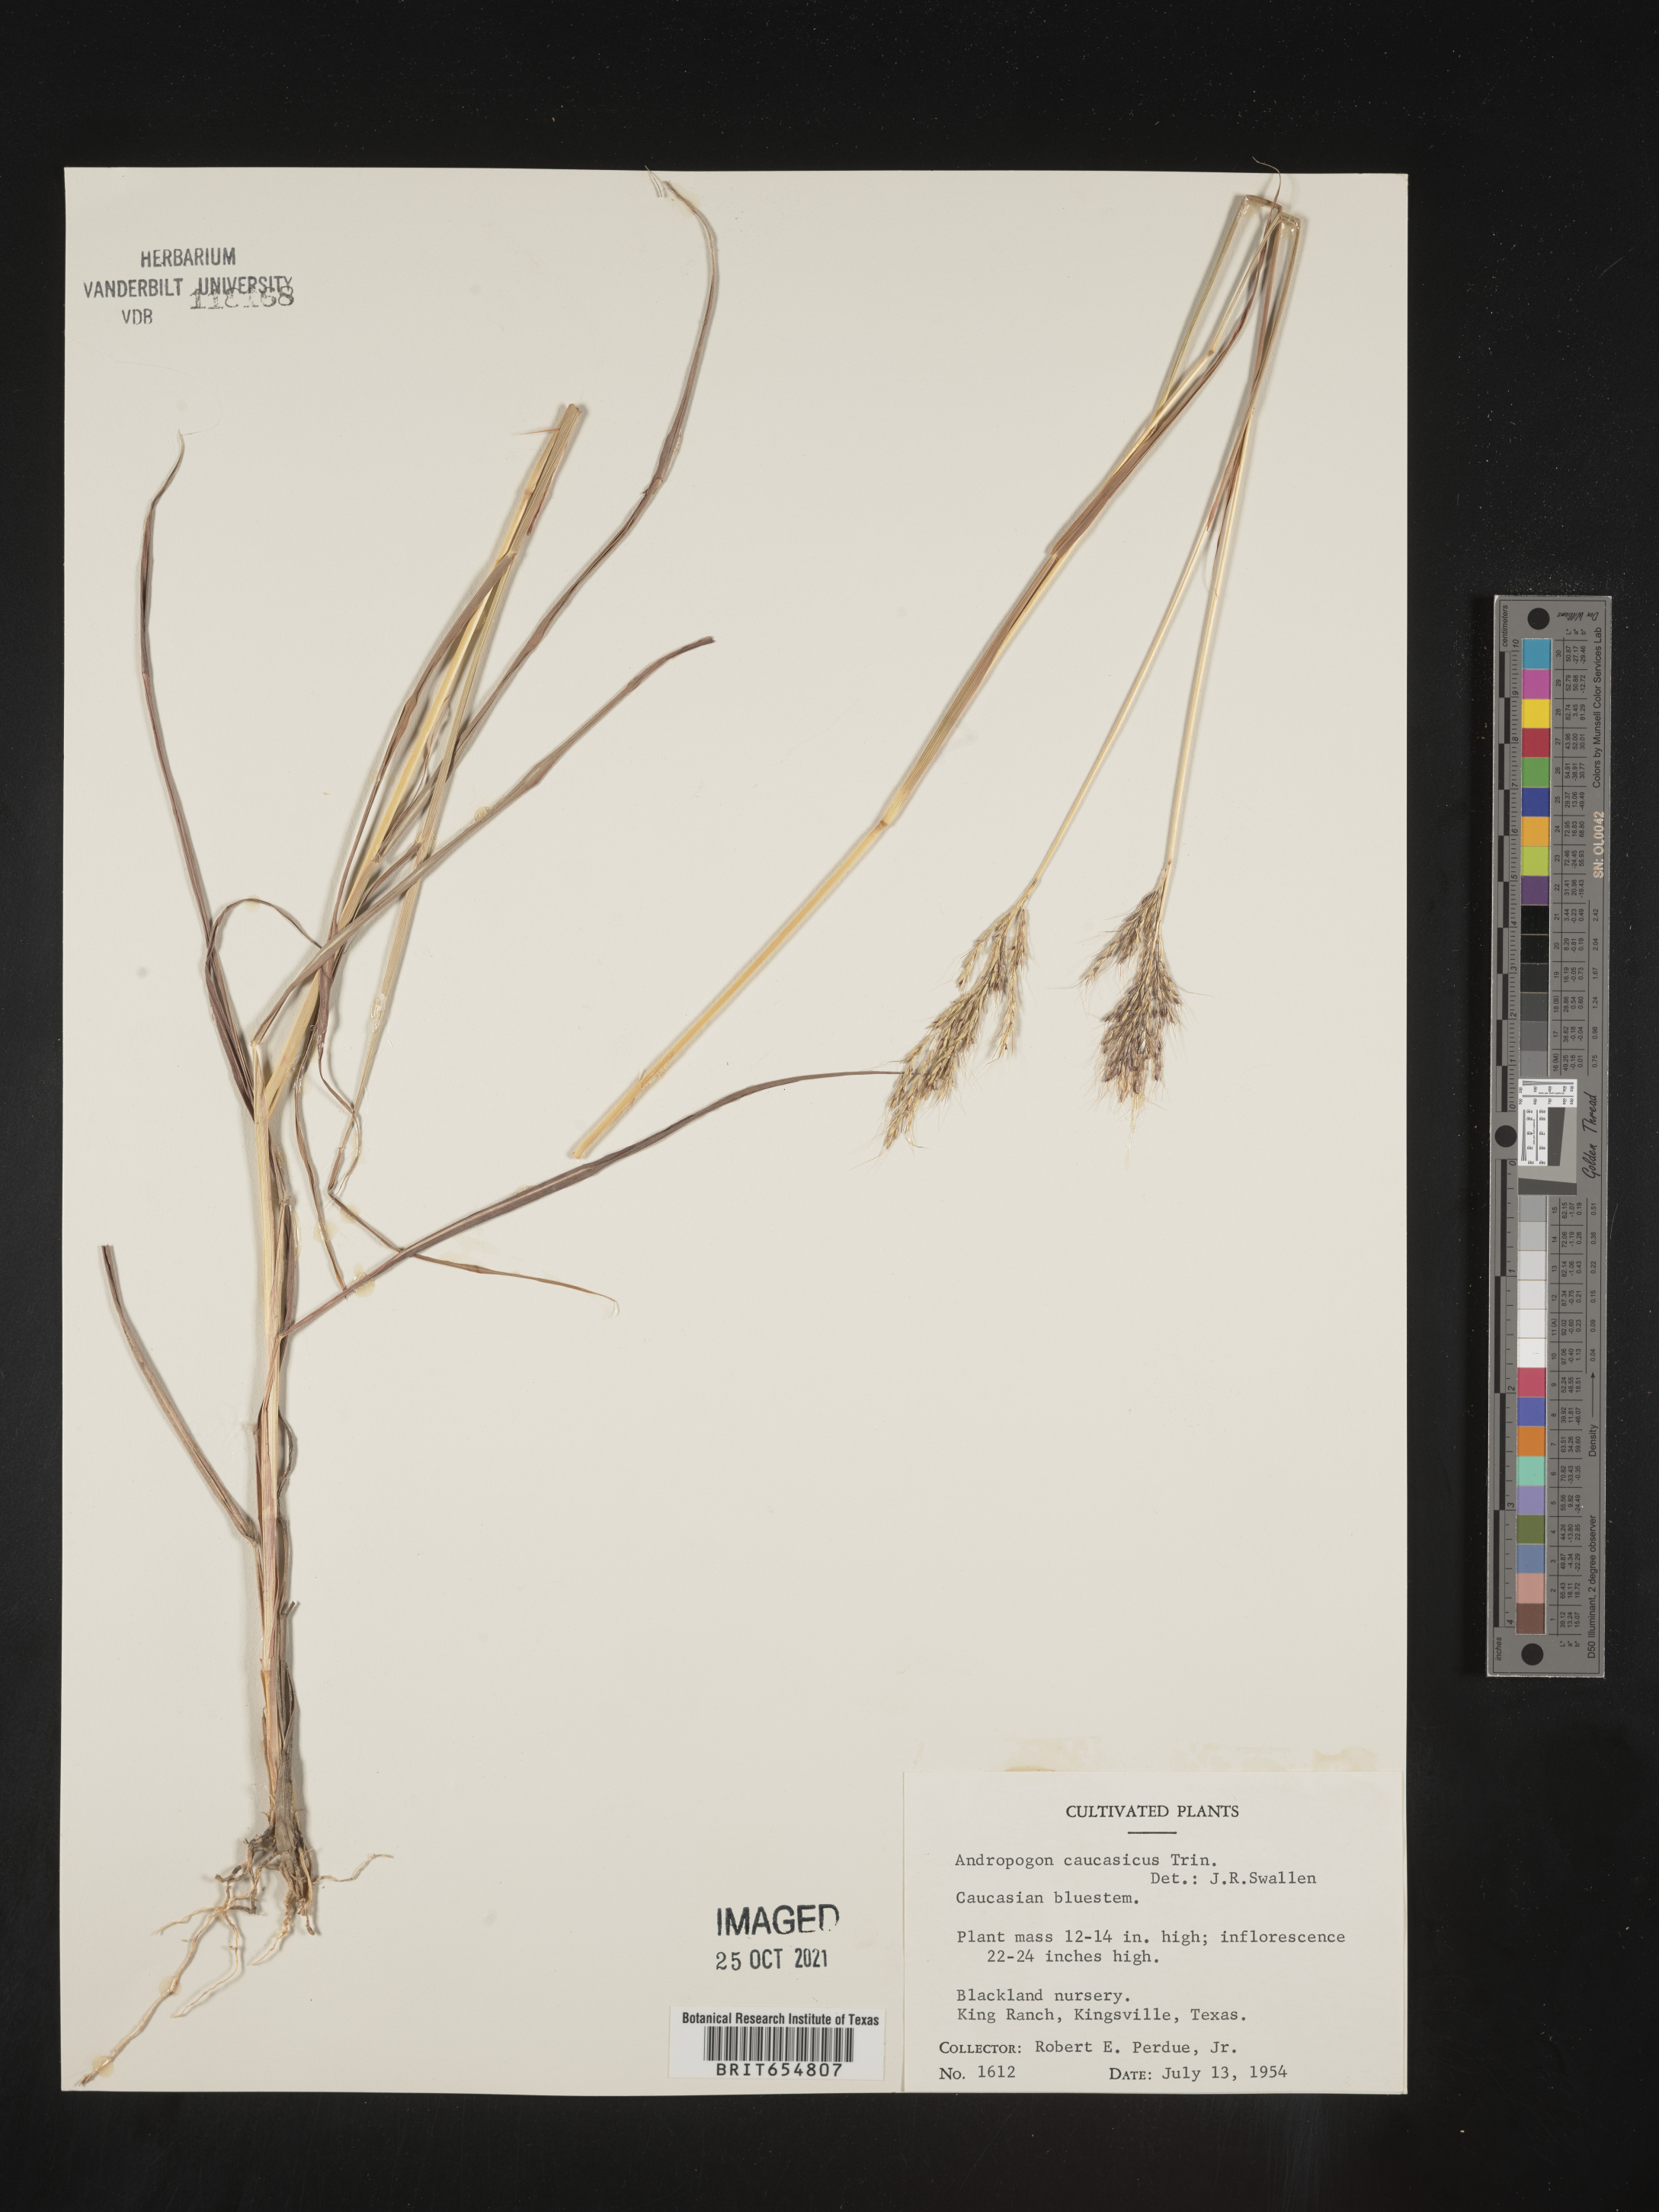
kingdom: Plantae
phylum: Tracheophyta
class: Liliopsida
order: Poales
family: Poaceae
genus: Andropogon
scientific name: Andropogon
